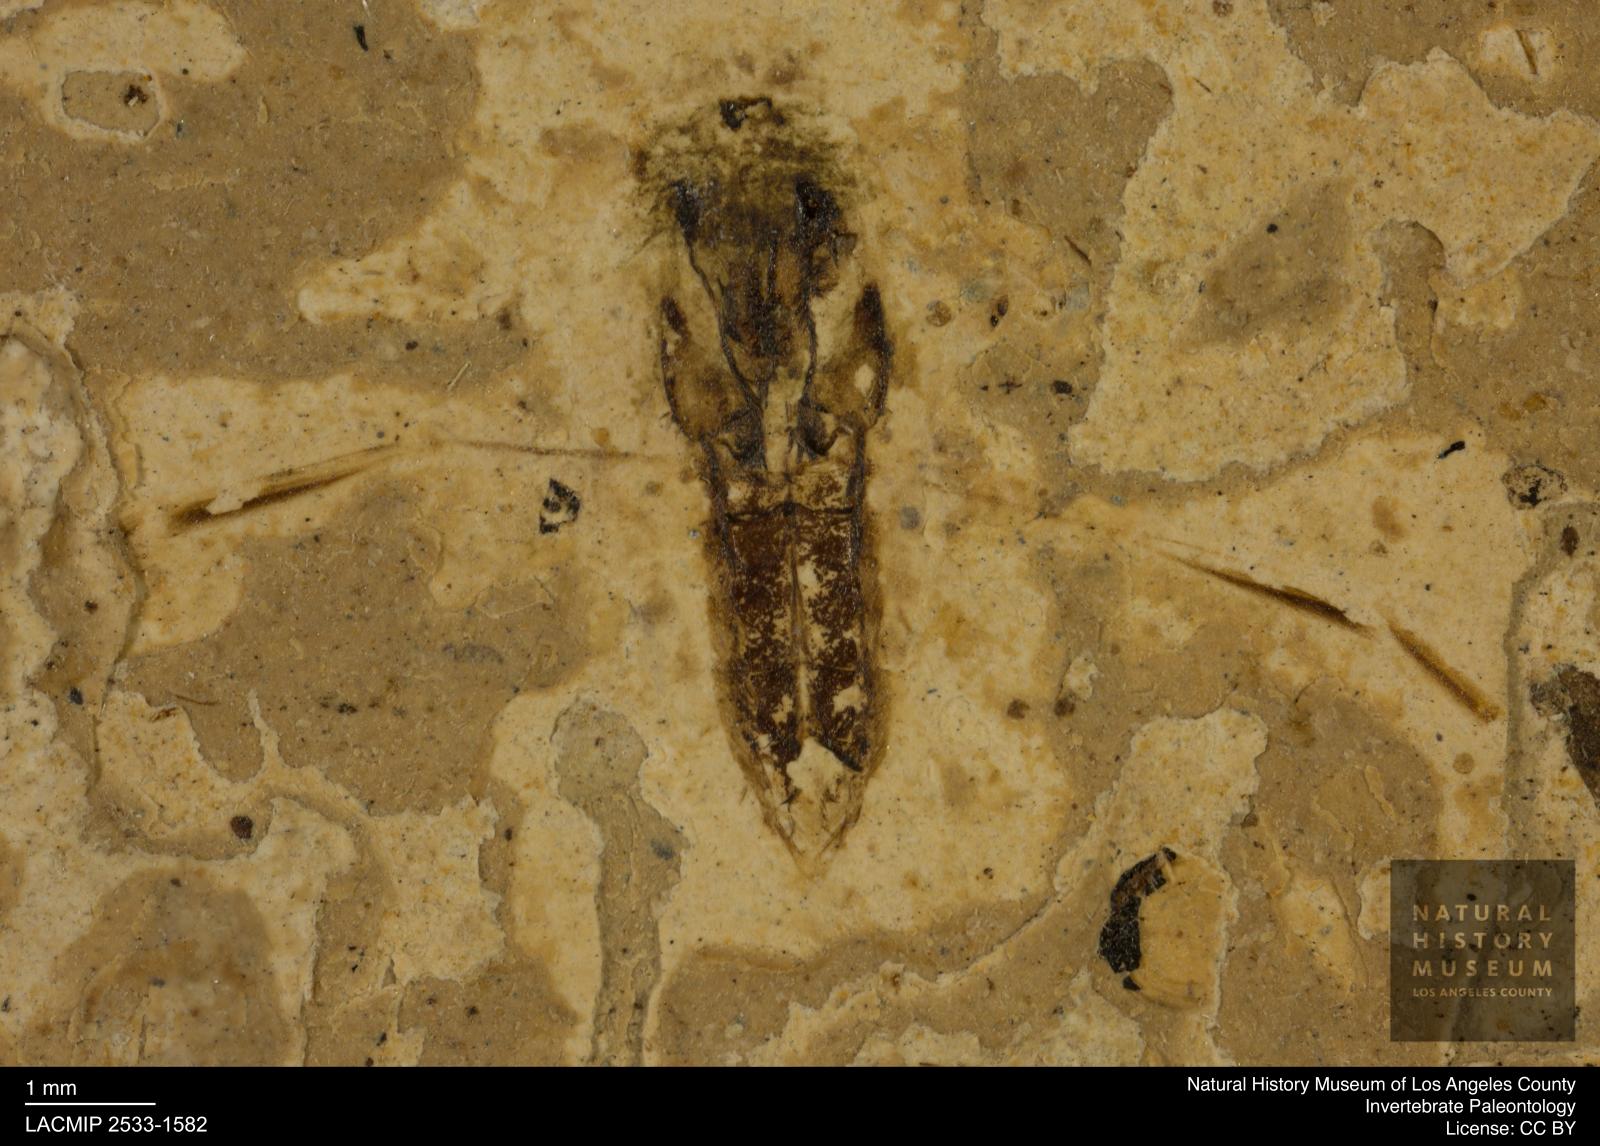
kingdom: Animalia
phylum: Arthropoda
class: Insecta
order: Hemiptera
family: Notonectidae
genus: Notonecta
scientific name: Notonecta
